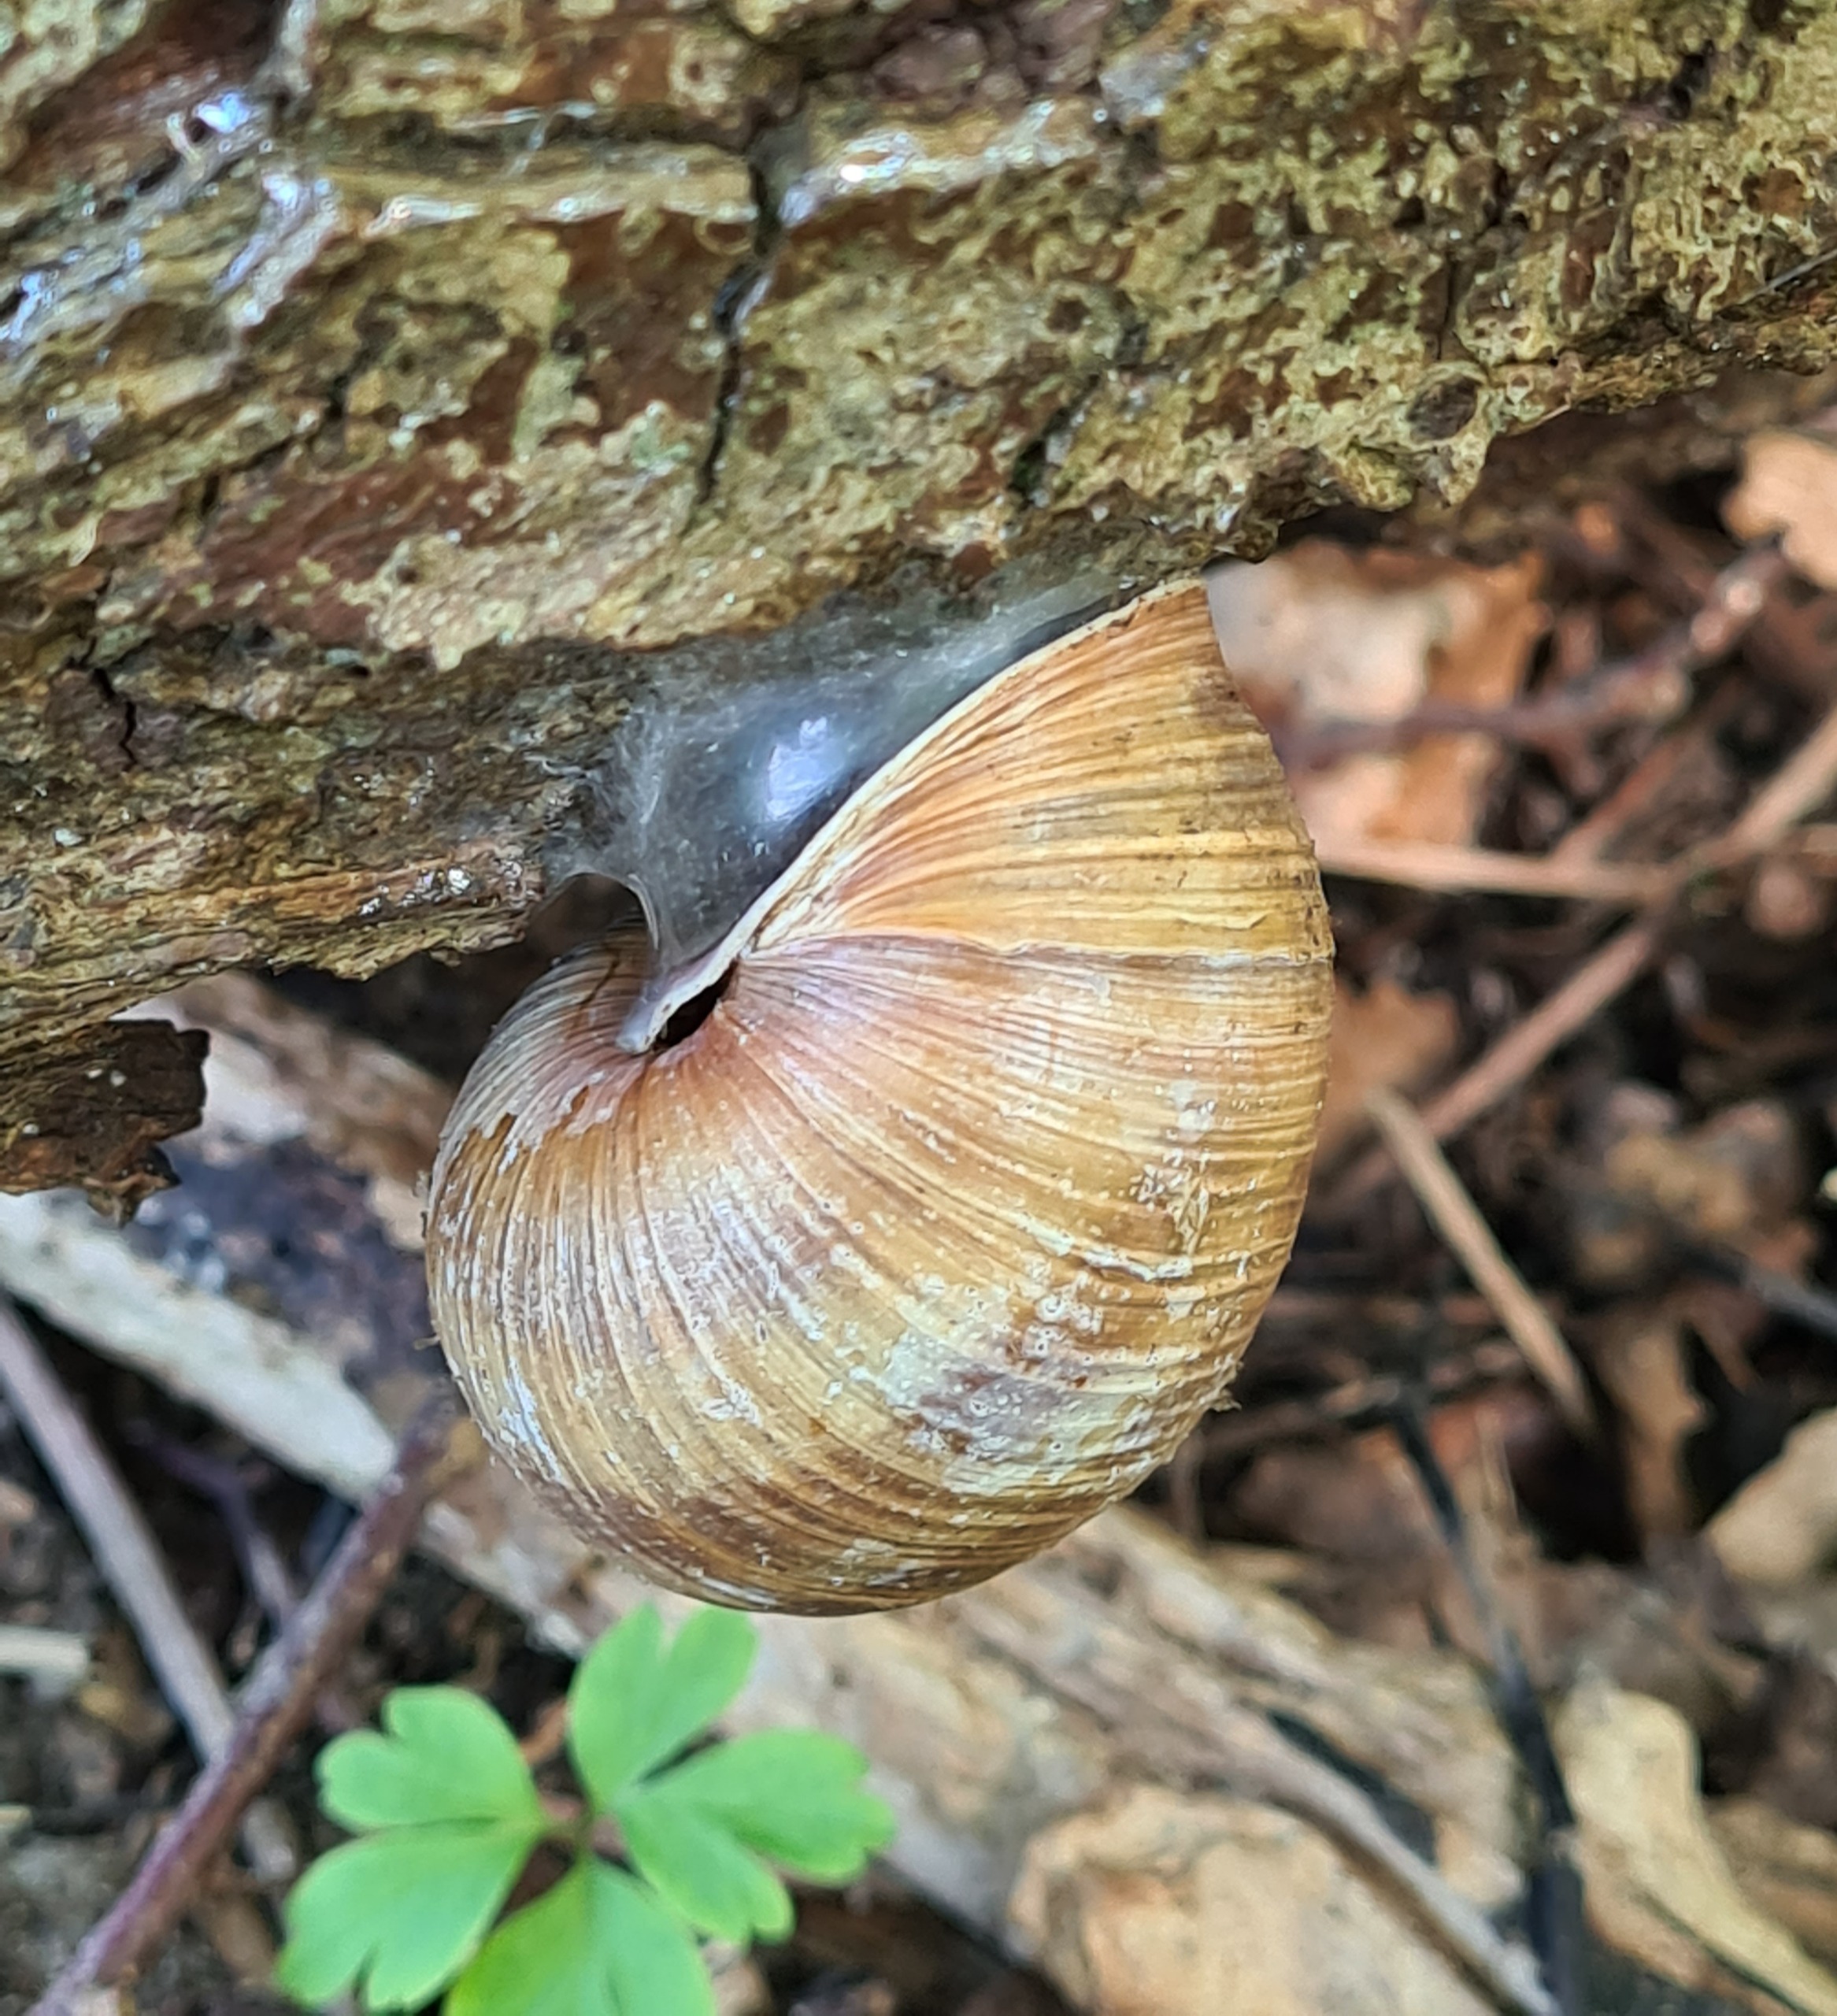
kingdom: Animalia
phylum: Mollusca
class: Gastropoda
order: Stylommatophora
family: Helicidae
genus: Helix
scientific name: Helix pomatia
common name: Vinbjergsnegl
